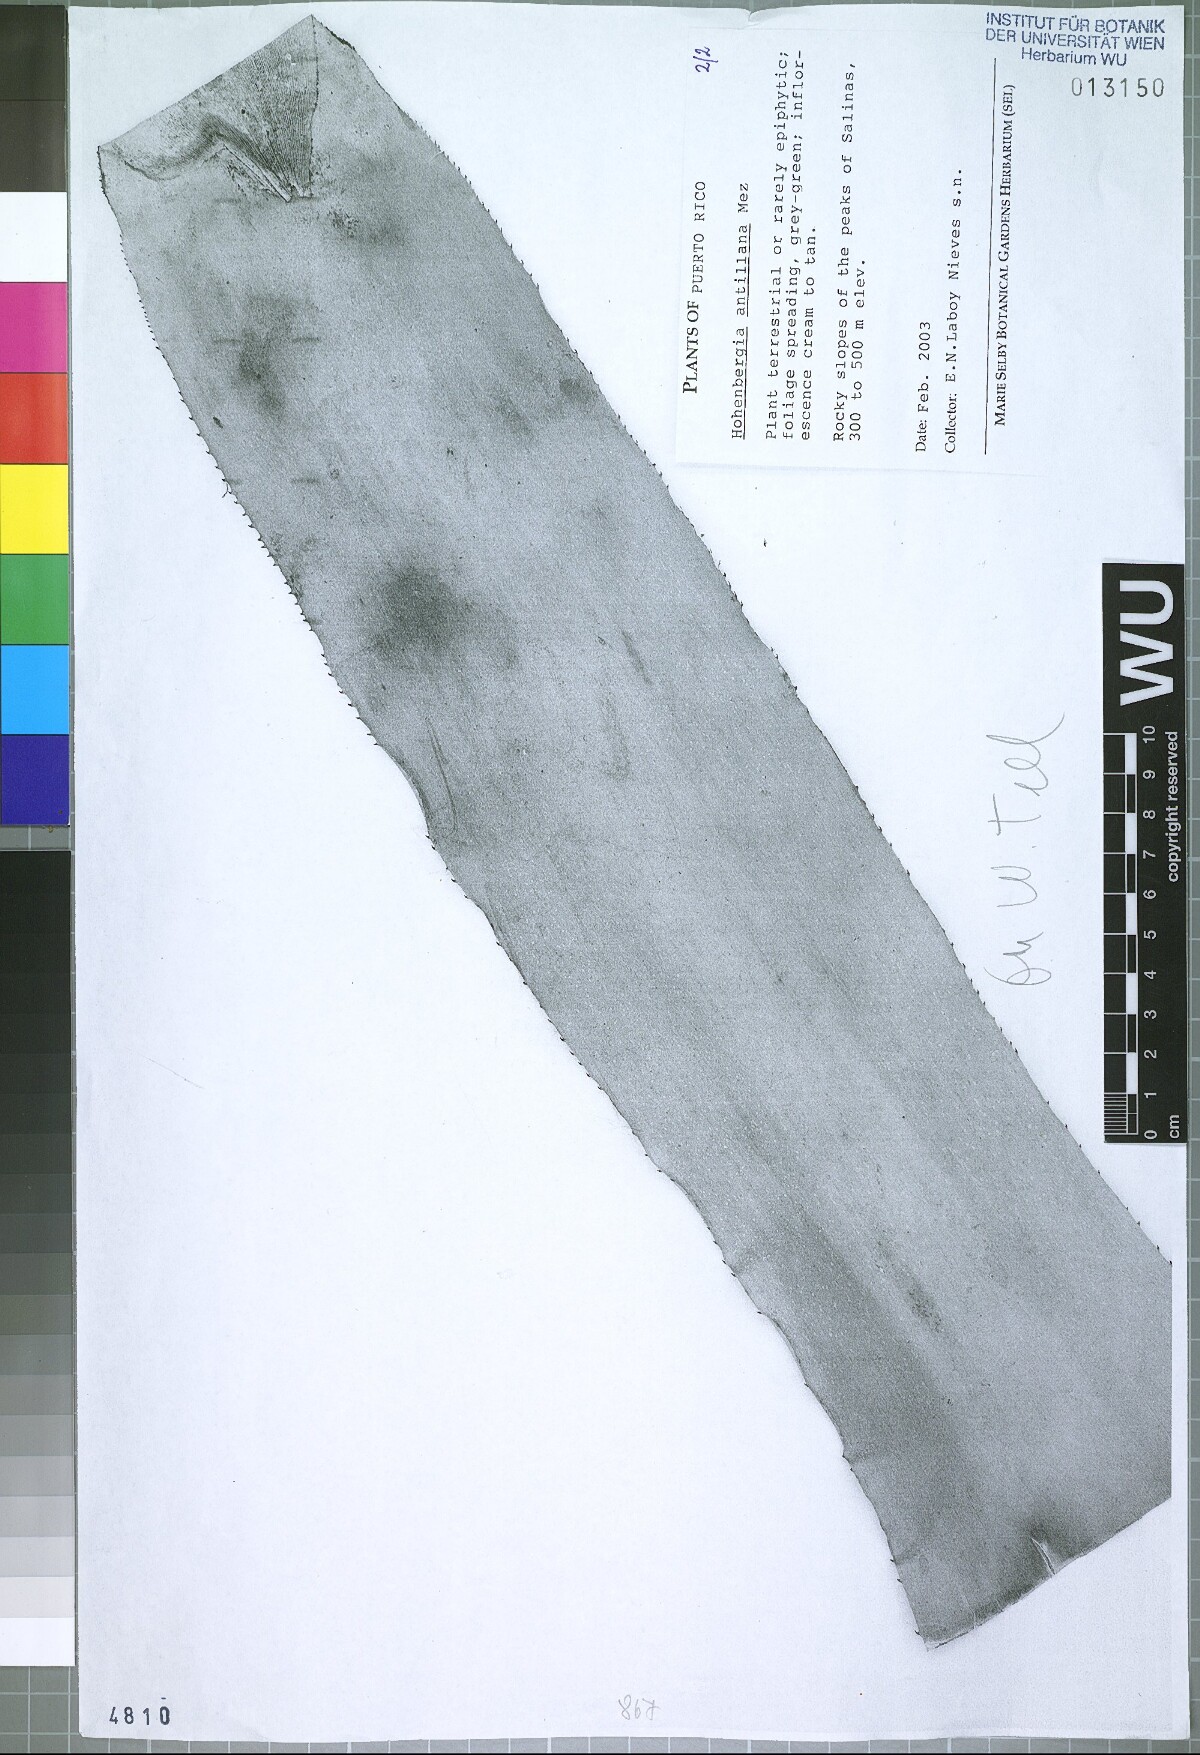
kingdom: Plantae
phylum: Tracheophyta
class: Liliopsida
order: Poales
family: Bromeliaceae
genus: Wittmackia
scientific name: Wittmackia antillana
